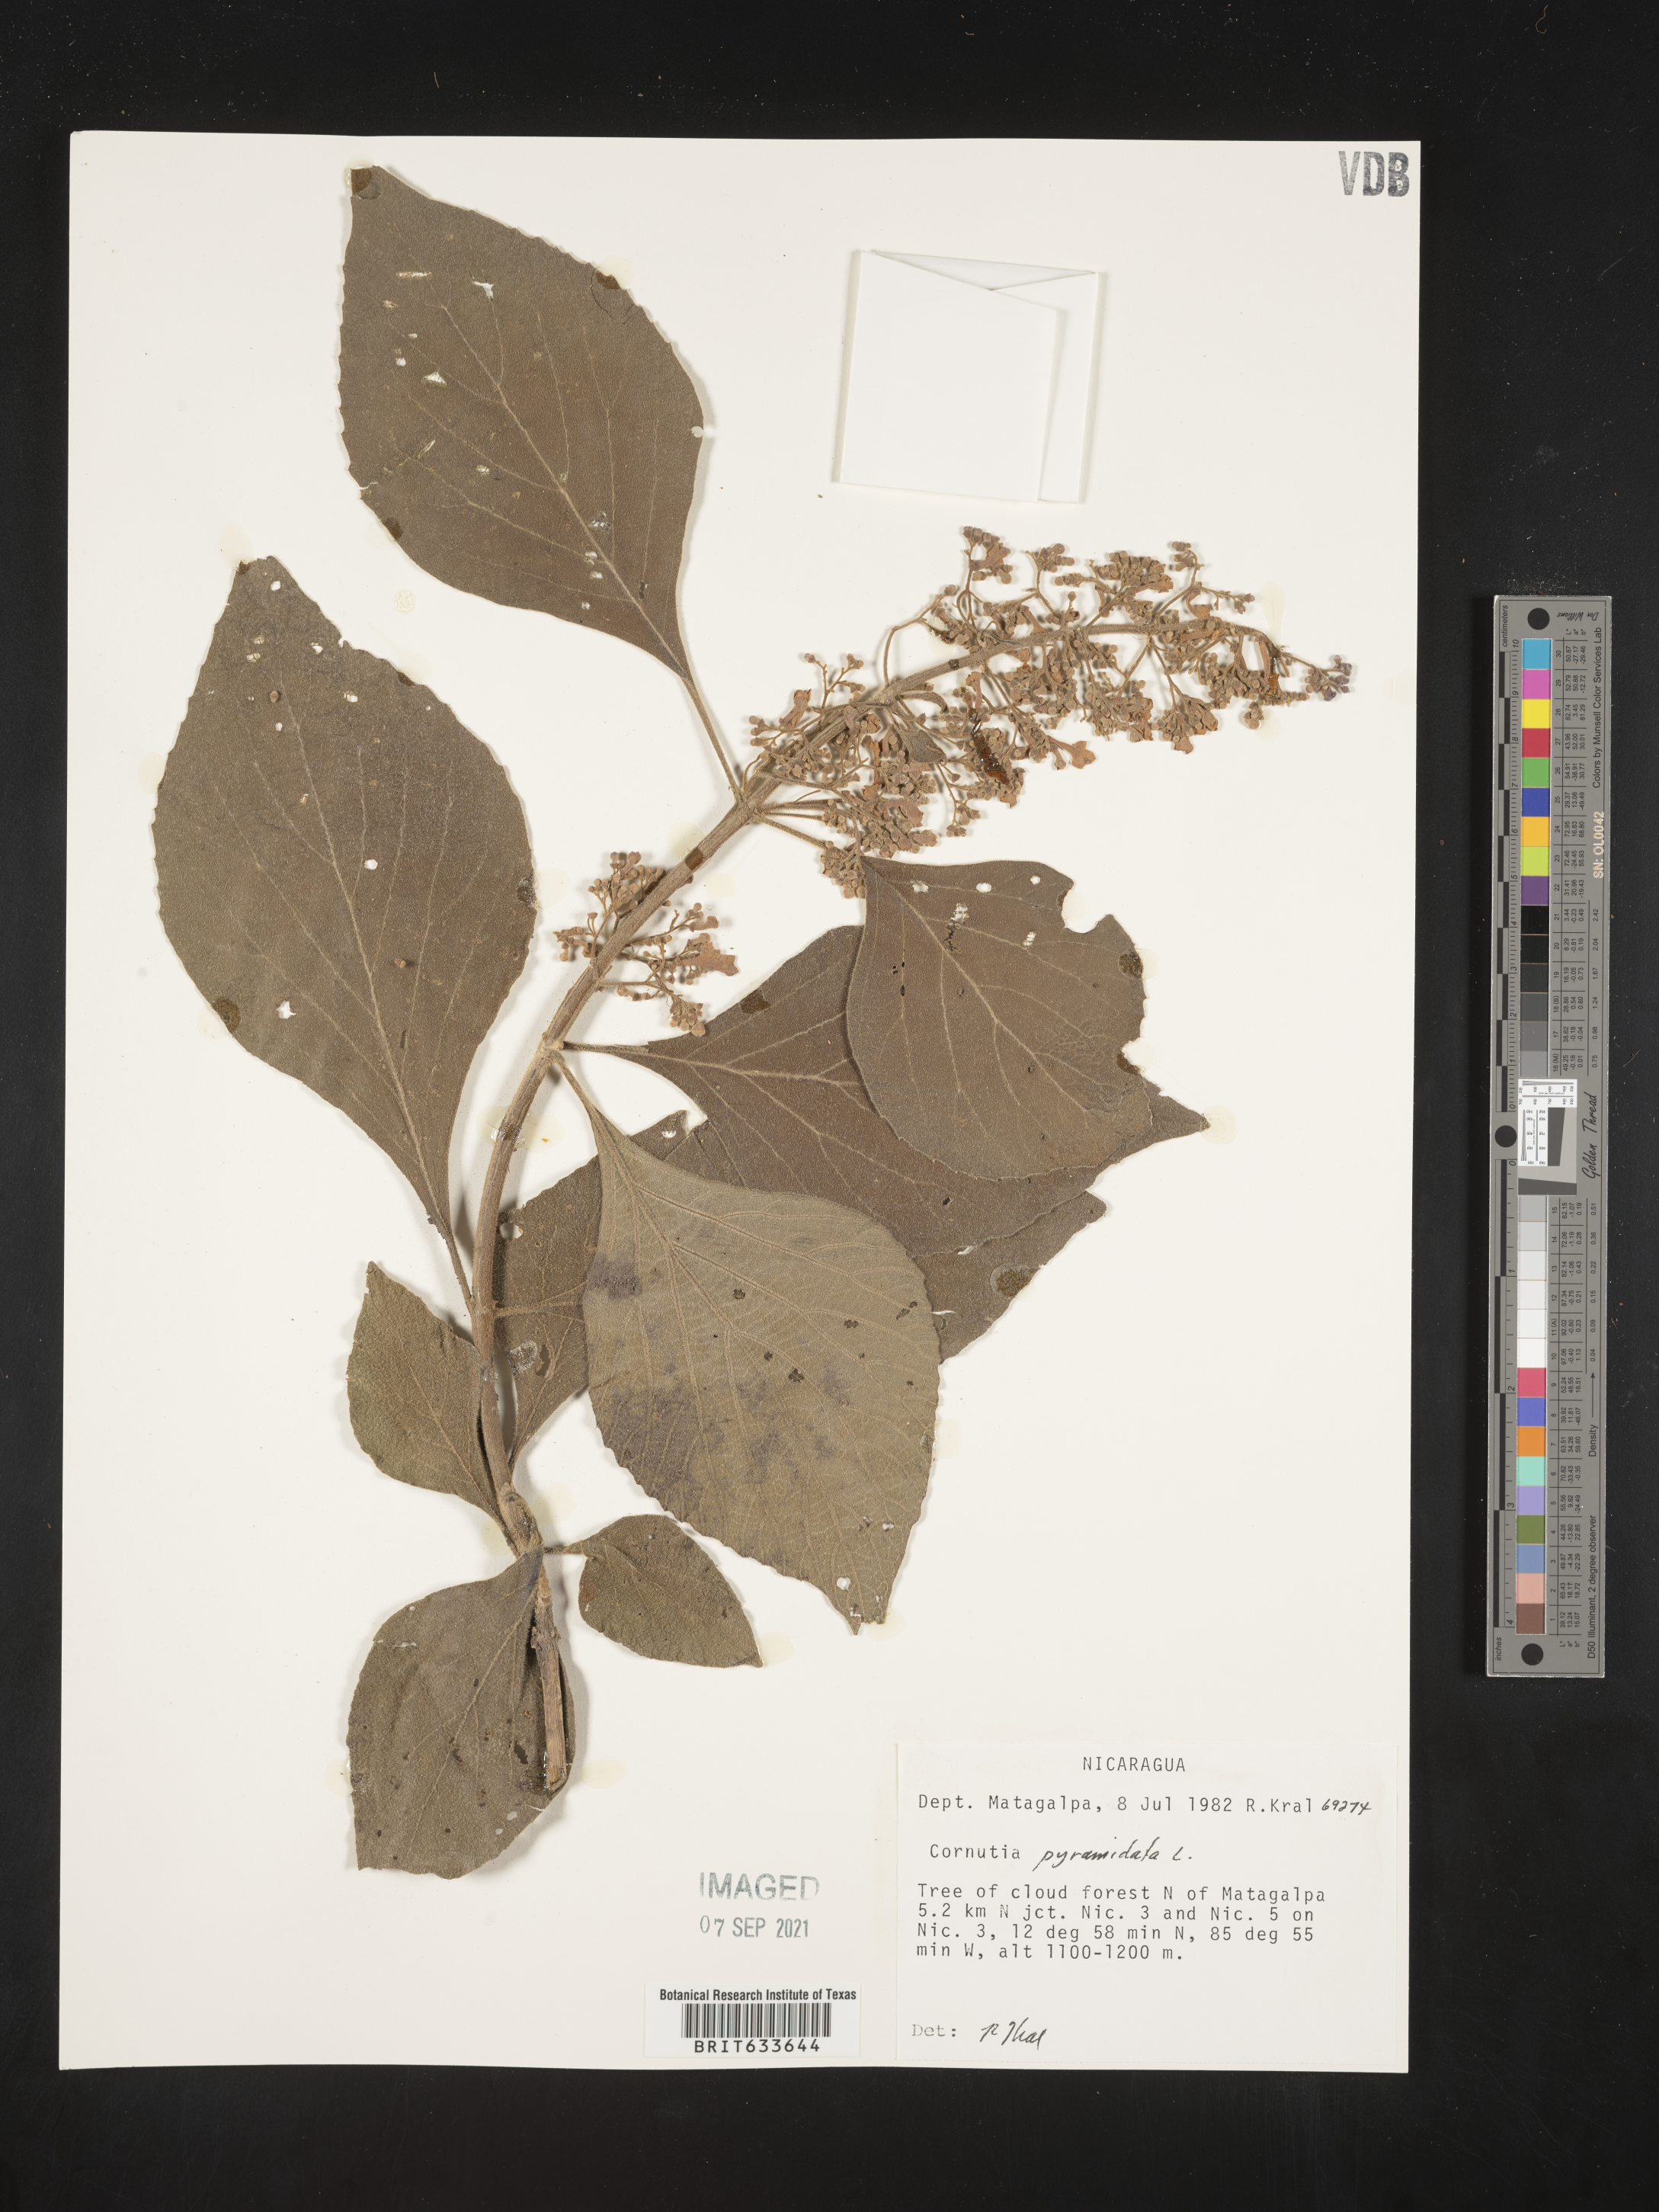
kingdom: Plantae
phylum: Tracheophyta
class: Magnoliopsida
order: Lamiales
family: Lamiaceae
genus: Cornutia
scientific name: Cornutia
